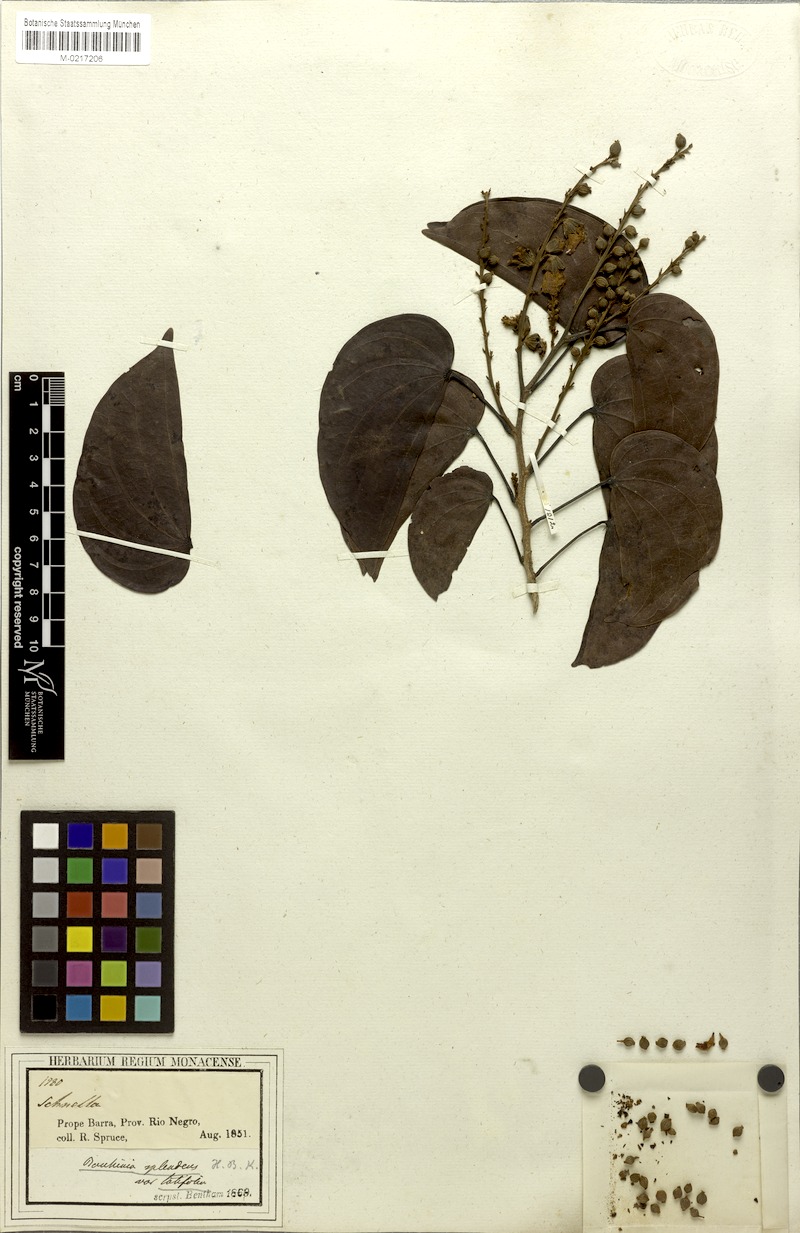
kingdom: Plantae
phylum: Tracheophyta
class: Magnoliopsida
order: Fabales
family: Fabaceae
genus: Schnella
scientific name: Schnella guianensis
